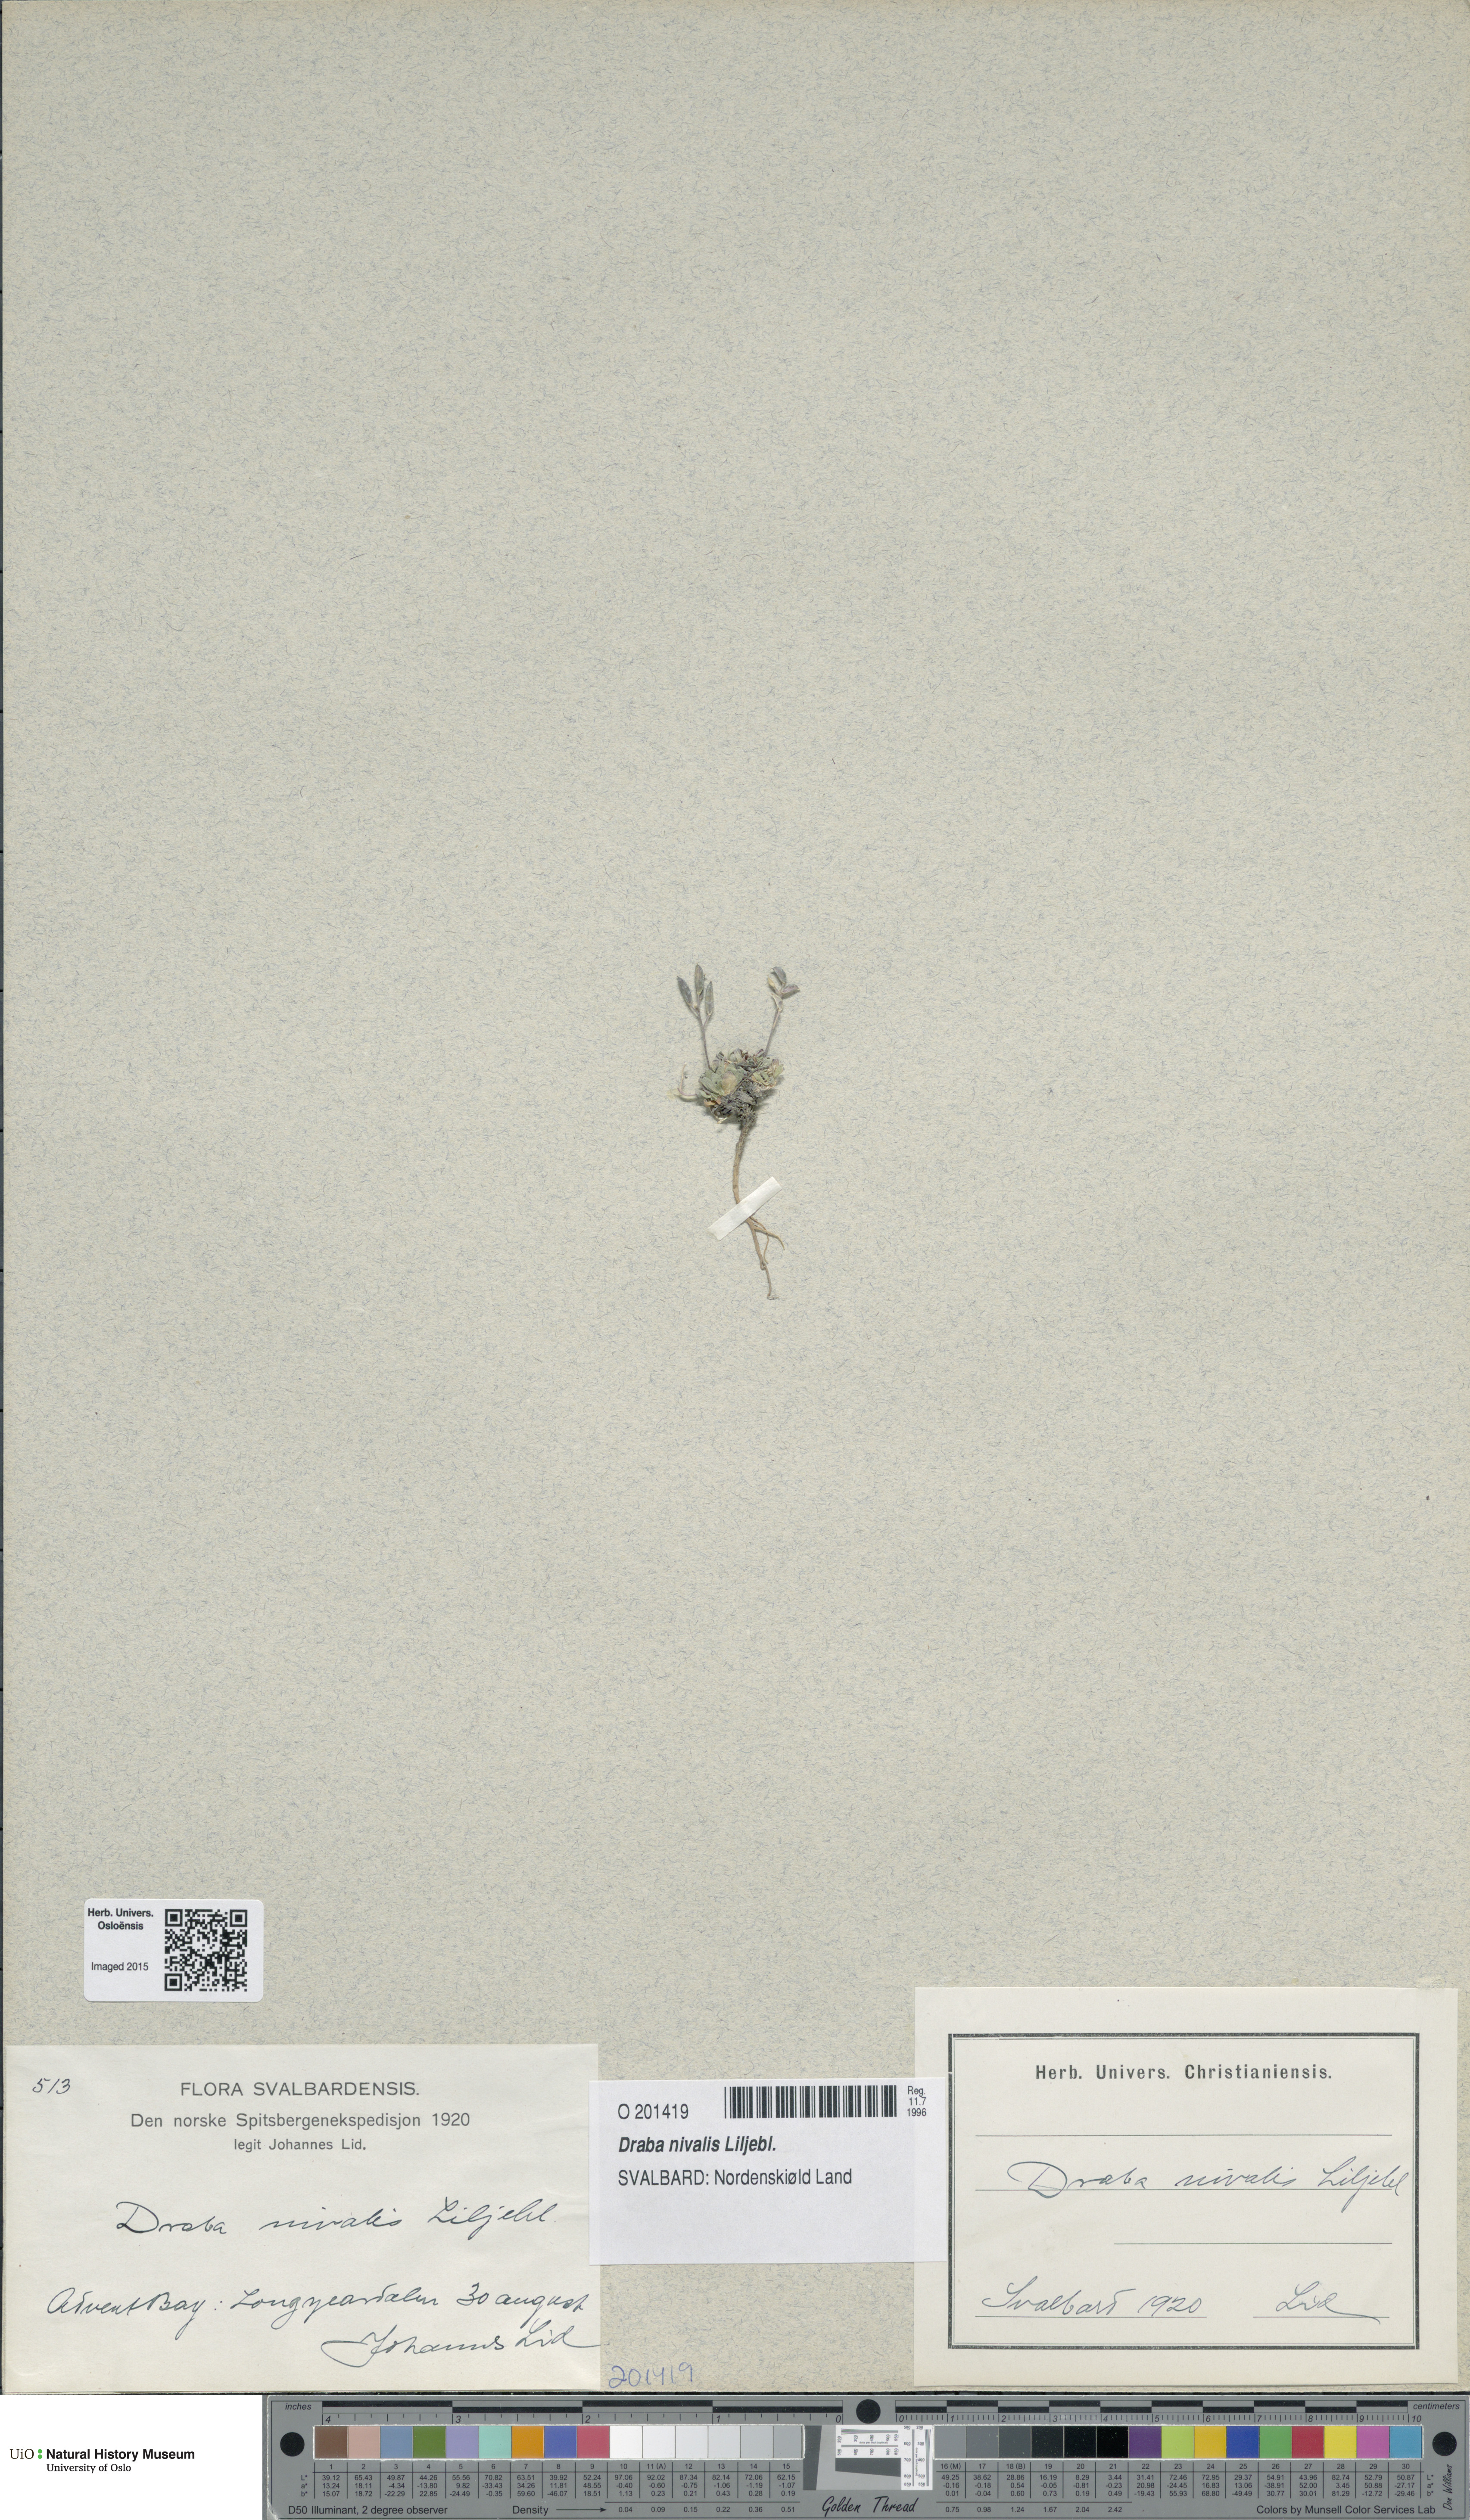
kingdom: Plantae
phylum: Tracheophyta
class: Magnoliopsida
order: Brassicales
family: Brassicaceae
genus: Draba
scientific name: Draba nivalis
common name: Snow draba
